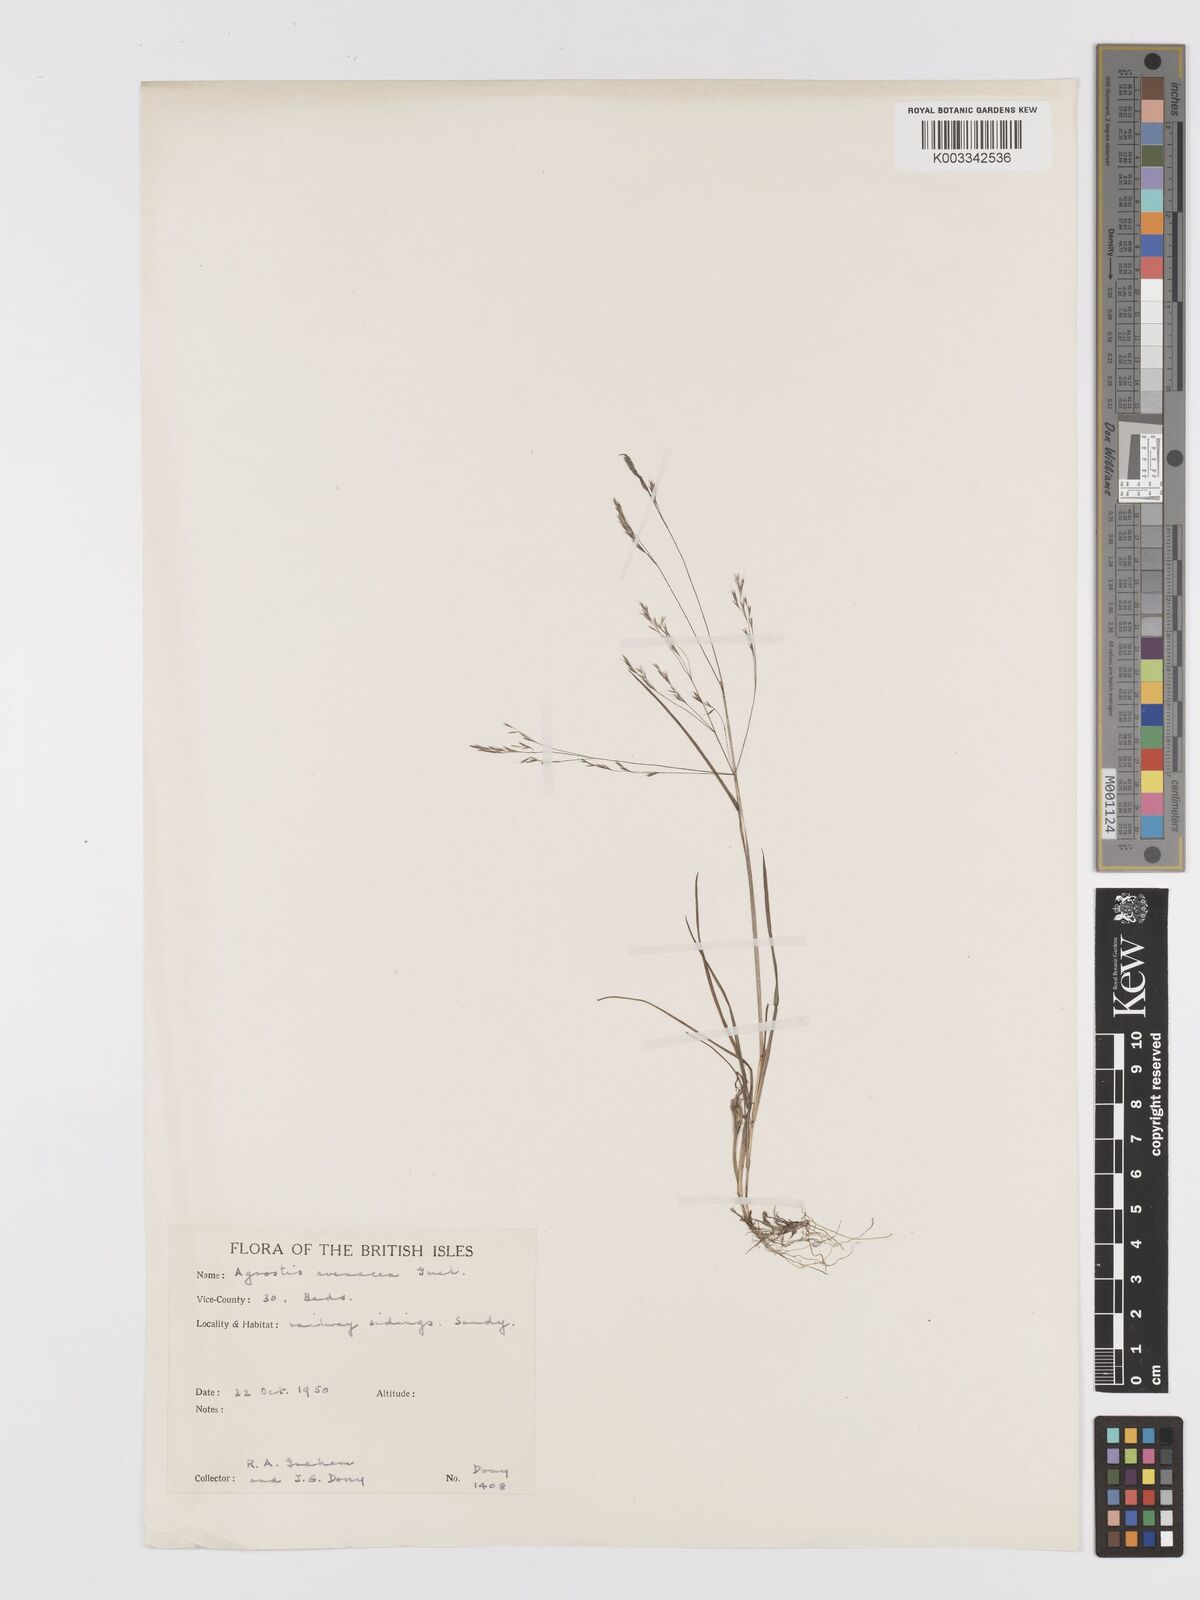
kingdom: Plantae
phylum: Tracheophyta
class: Liliopsida
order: Poales
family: Poaceae
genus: Agrostis
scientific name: Agrostis
